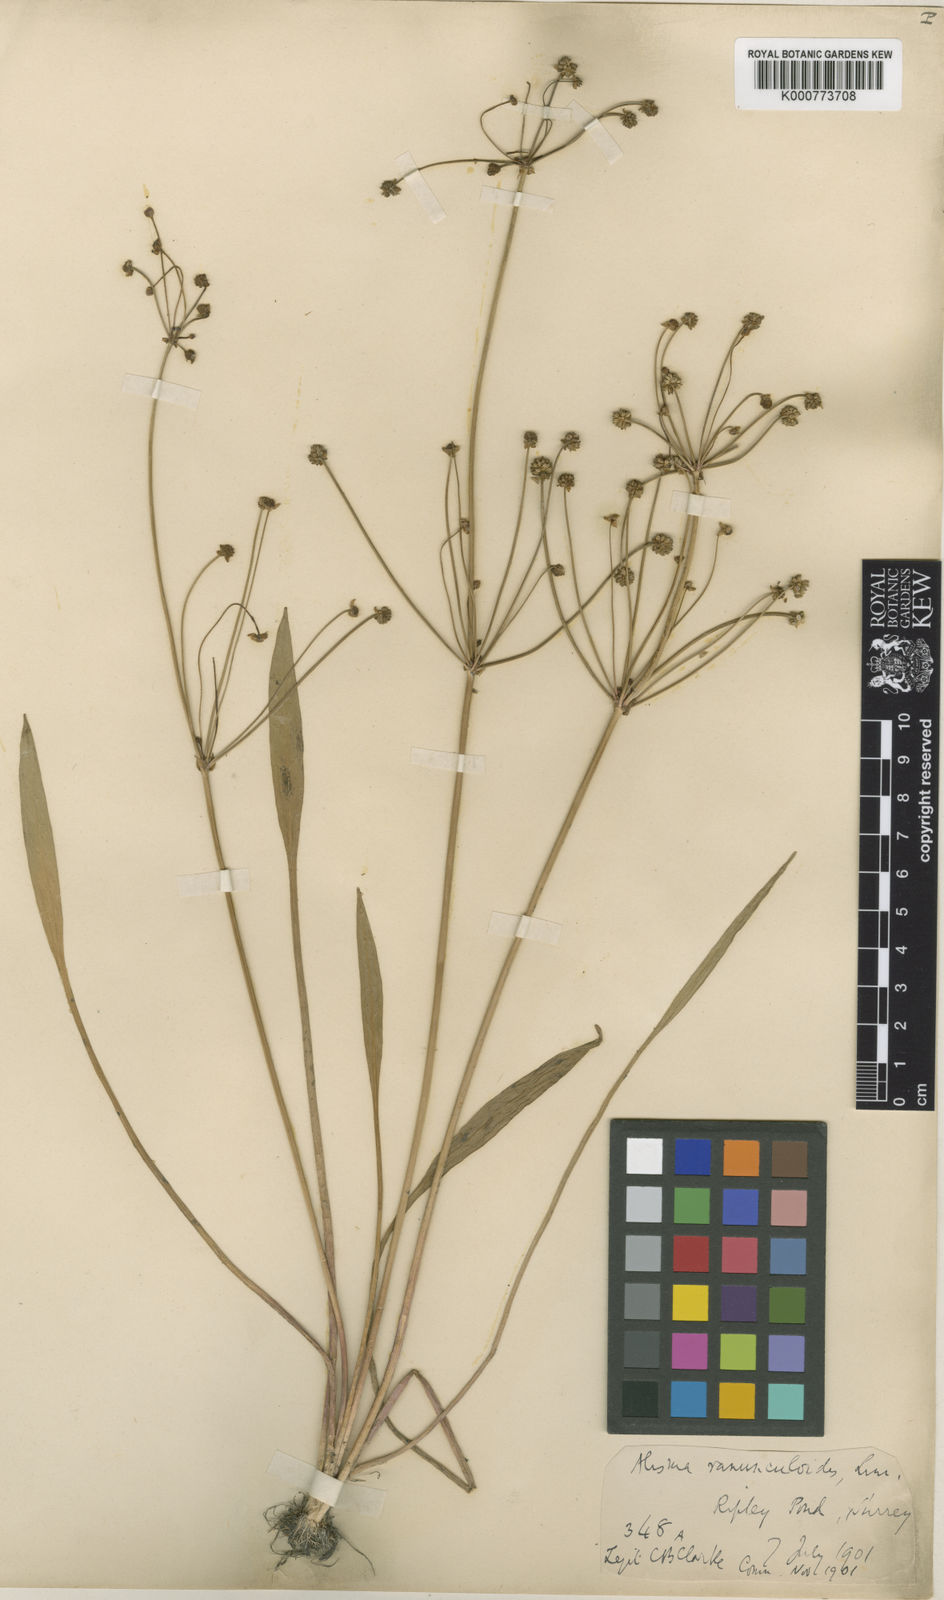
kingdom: Plantae
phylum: Tracheophyta
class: Liliopsida
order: Alismatales
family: Alismataceae
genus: Baldellia
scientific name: Baldellia ranunculoides
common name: Lesser water-plantain
